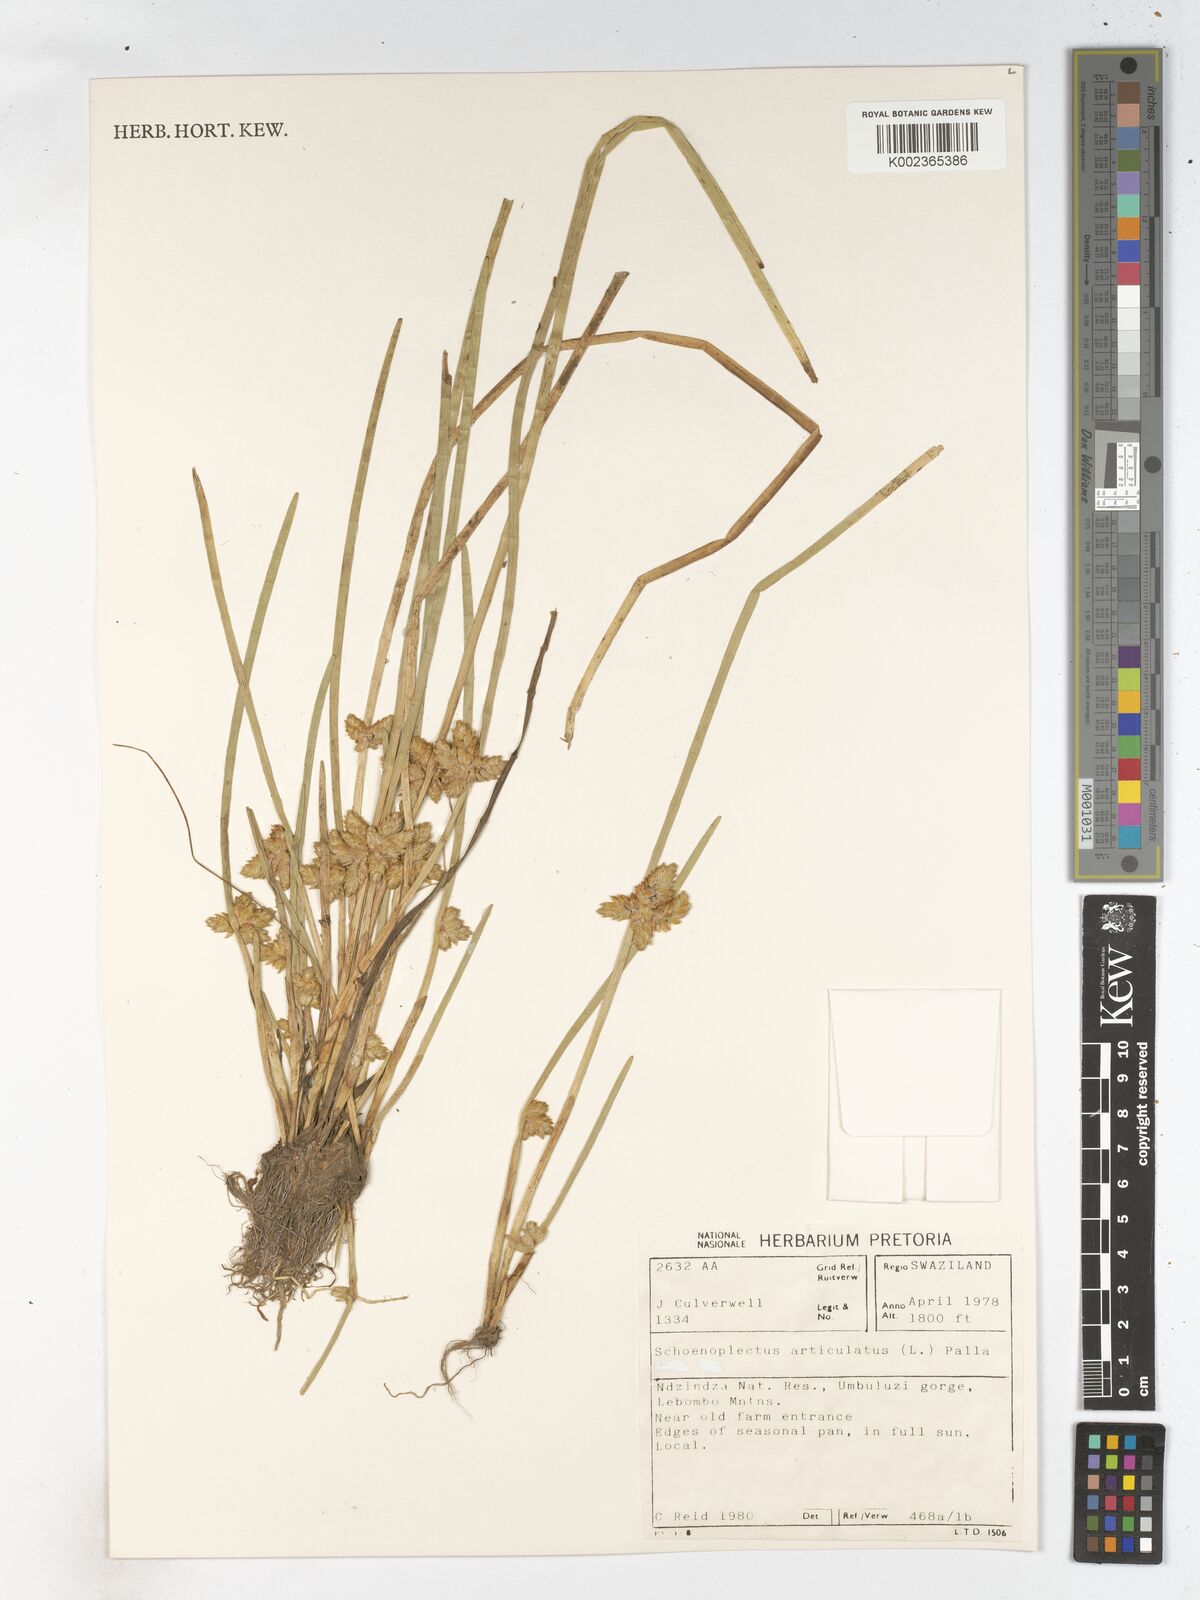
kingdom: Plantae
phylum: Tracheophyta
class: Liliopsida
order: Poales
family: Cyperaceae
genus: Schoenoplectiella
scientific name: Schoenoplectiella articulata
